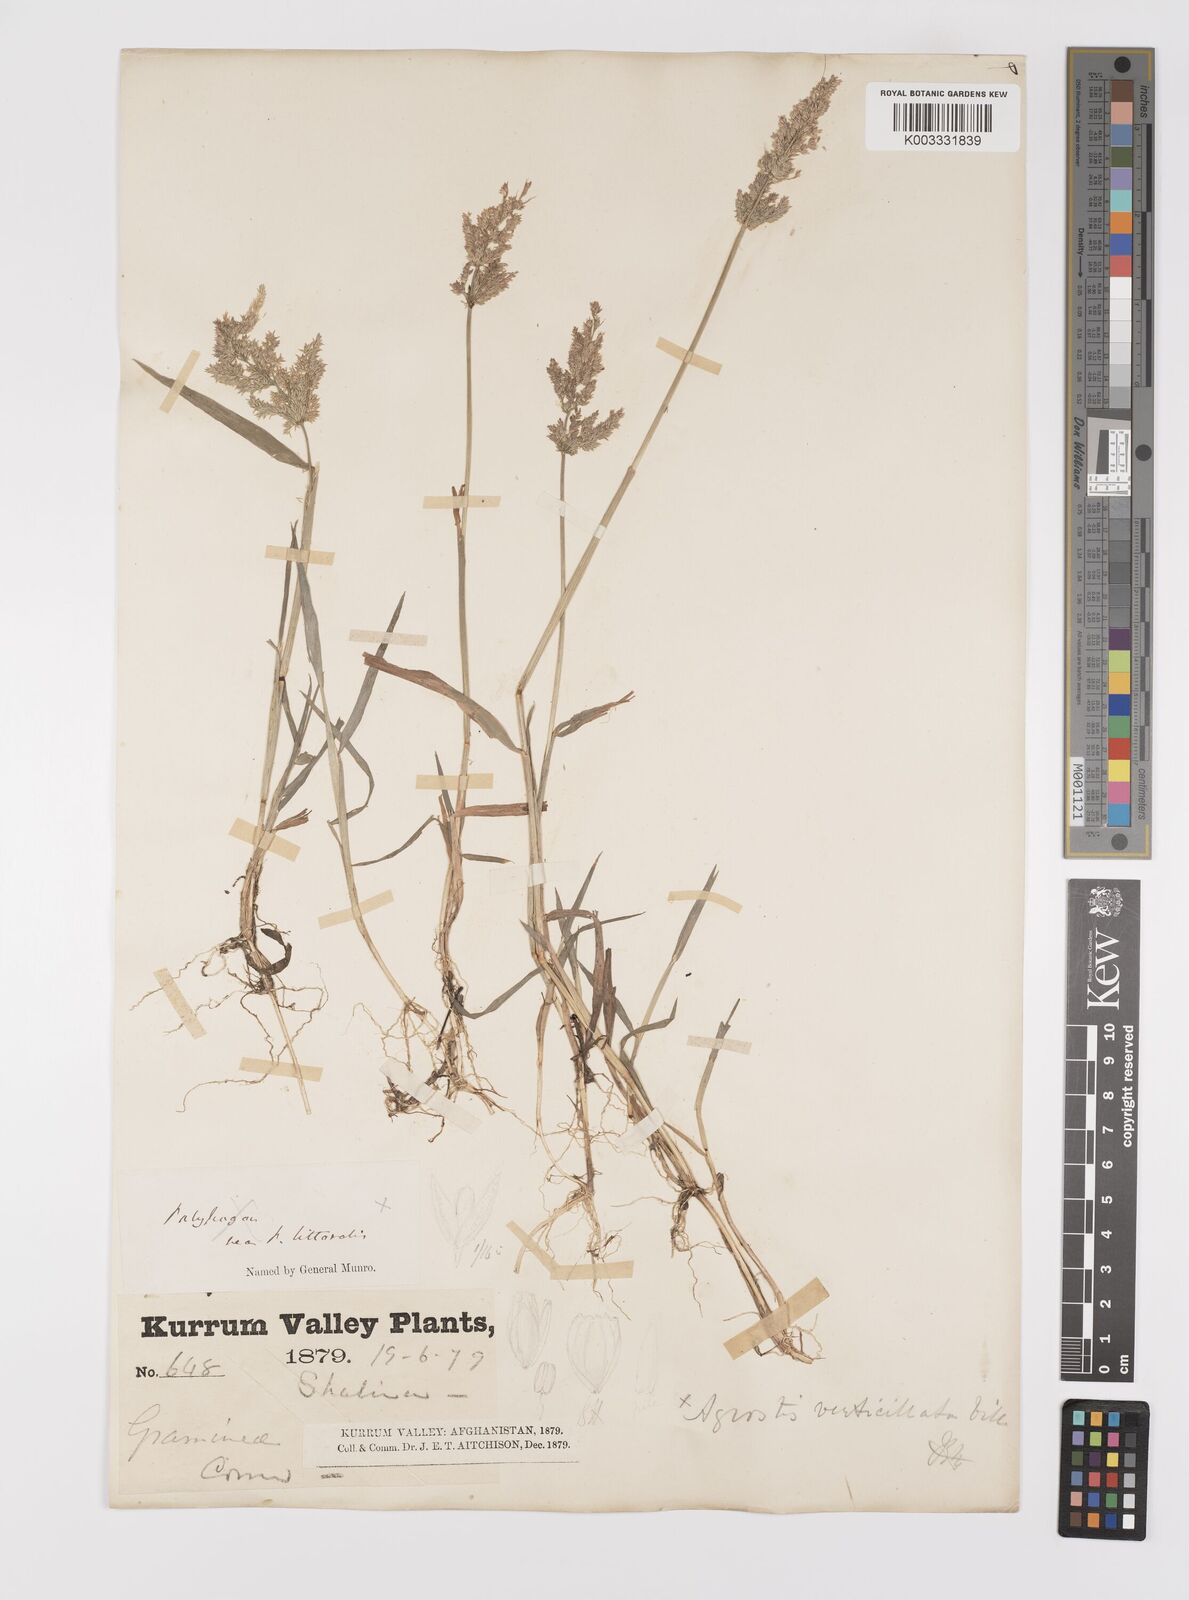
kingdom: Plantae
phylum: Tracheophyta
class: Liliopsida
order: Poales
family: Poaceae
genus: Polypogon
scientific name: Polypogon viridis
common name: Water bent
